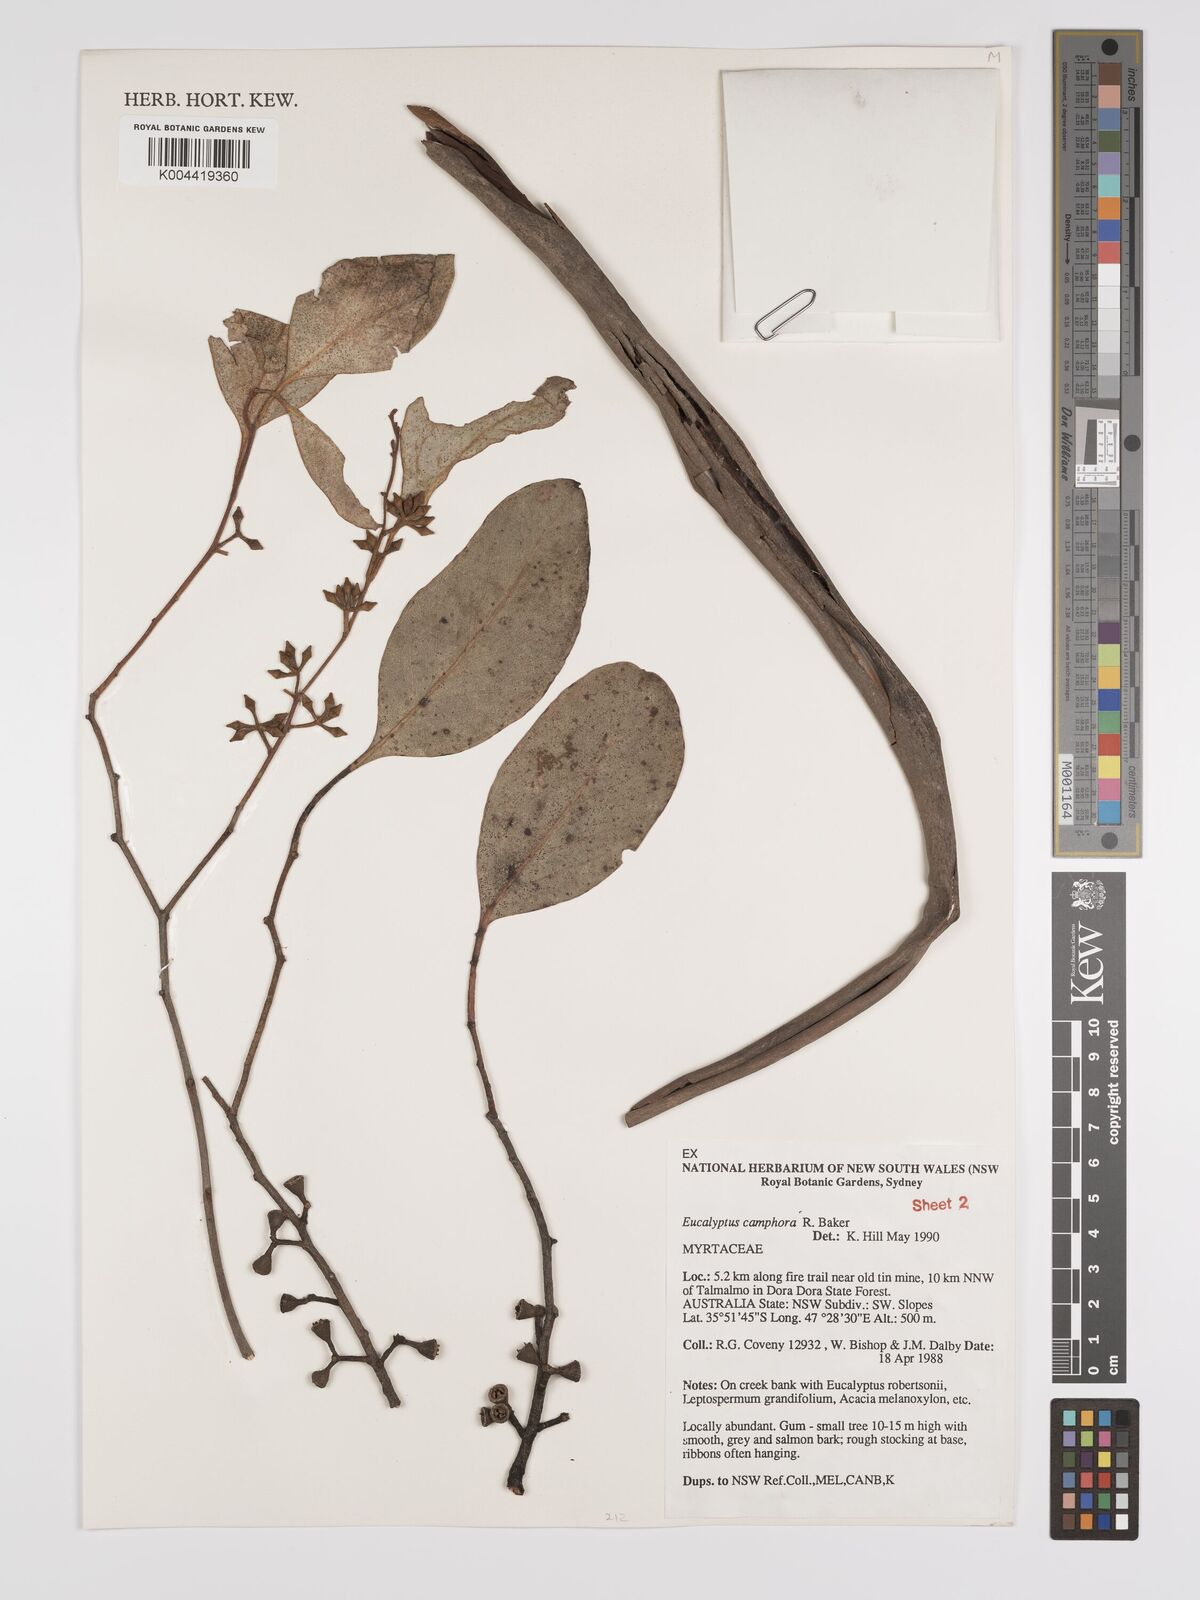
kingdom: Plantae
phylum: Tracheophyta
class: Magnoliopsida
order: Myrtales
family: Myrtaceae
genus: Eucalyptus
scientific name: Eucalyptus camphora
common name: Mountain swamp gum
